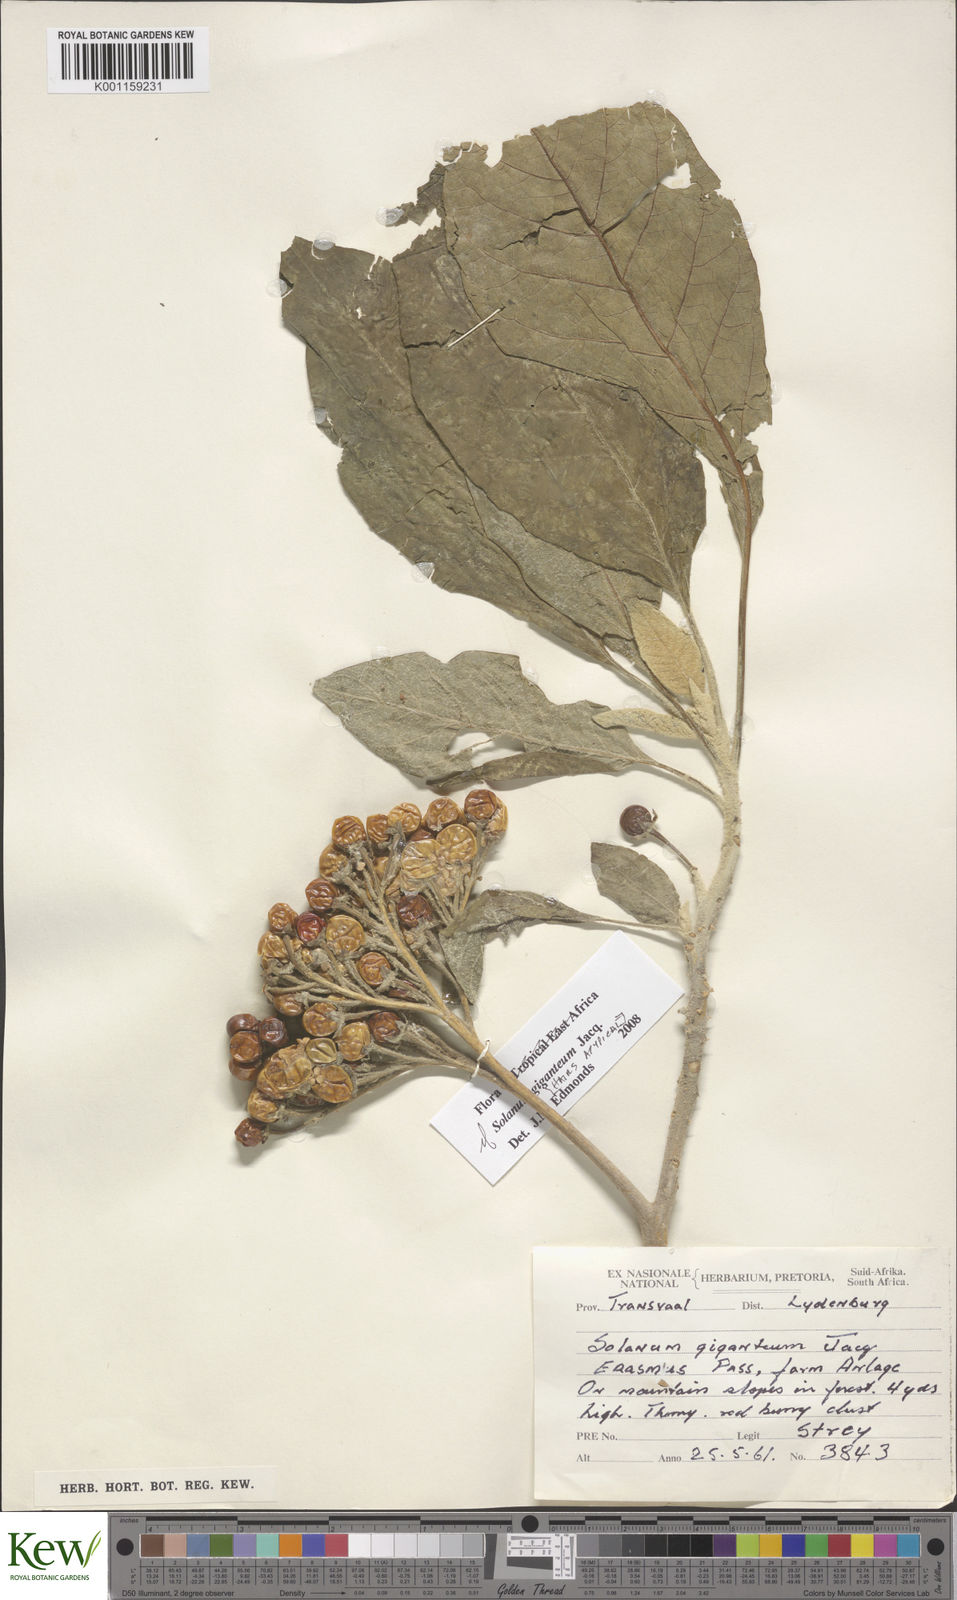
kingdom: Plantae
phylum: Tracheophyta
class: Magnoliopsida
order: Solanales
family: Solanaceae
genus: Solanum
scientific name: Solanum giganteum
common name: Healing-leaf-tree
